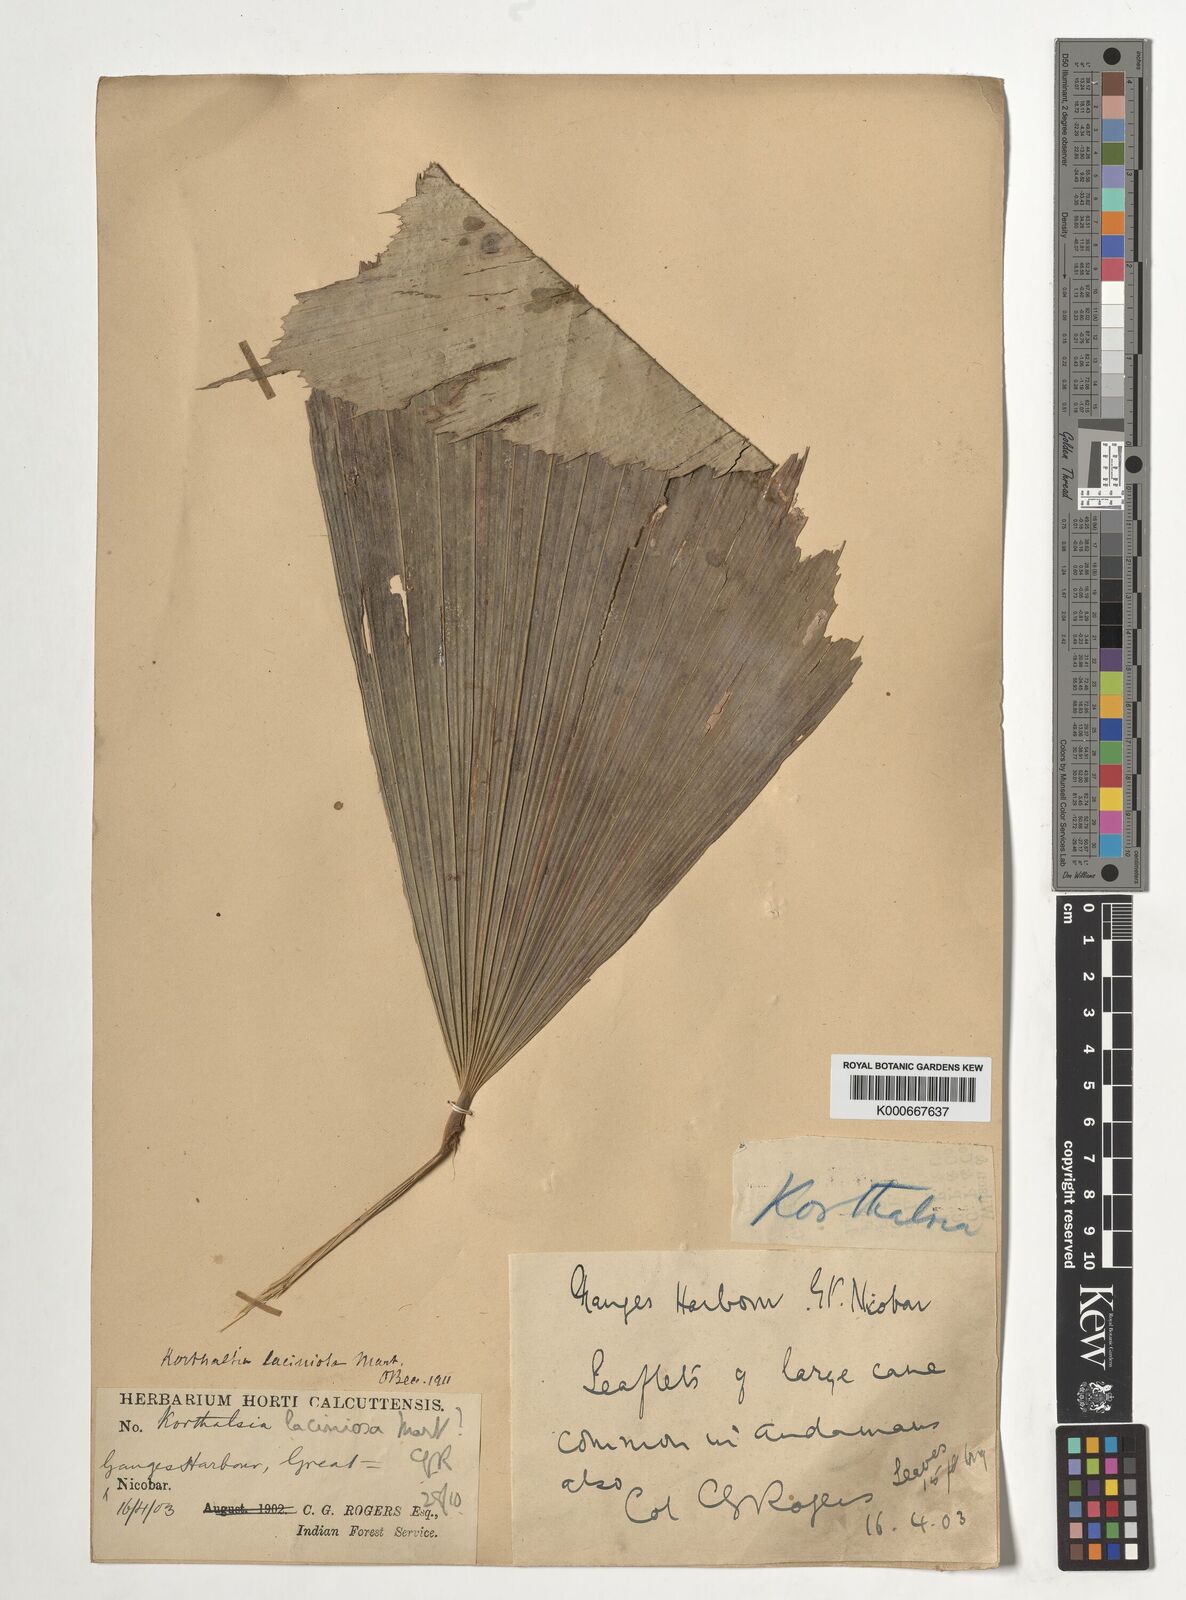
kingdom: Plantae
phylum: Tracheophyta
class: Liliopsida
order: Arecales
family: Arecaceae
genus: Korthalsia
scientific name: Korthalsia laciniosa
